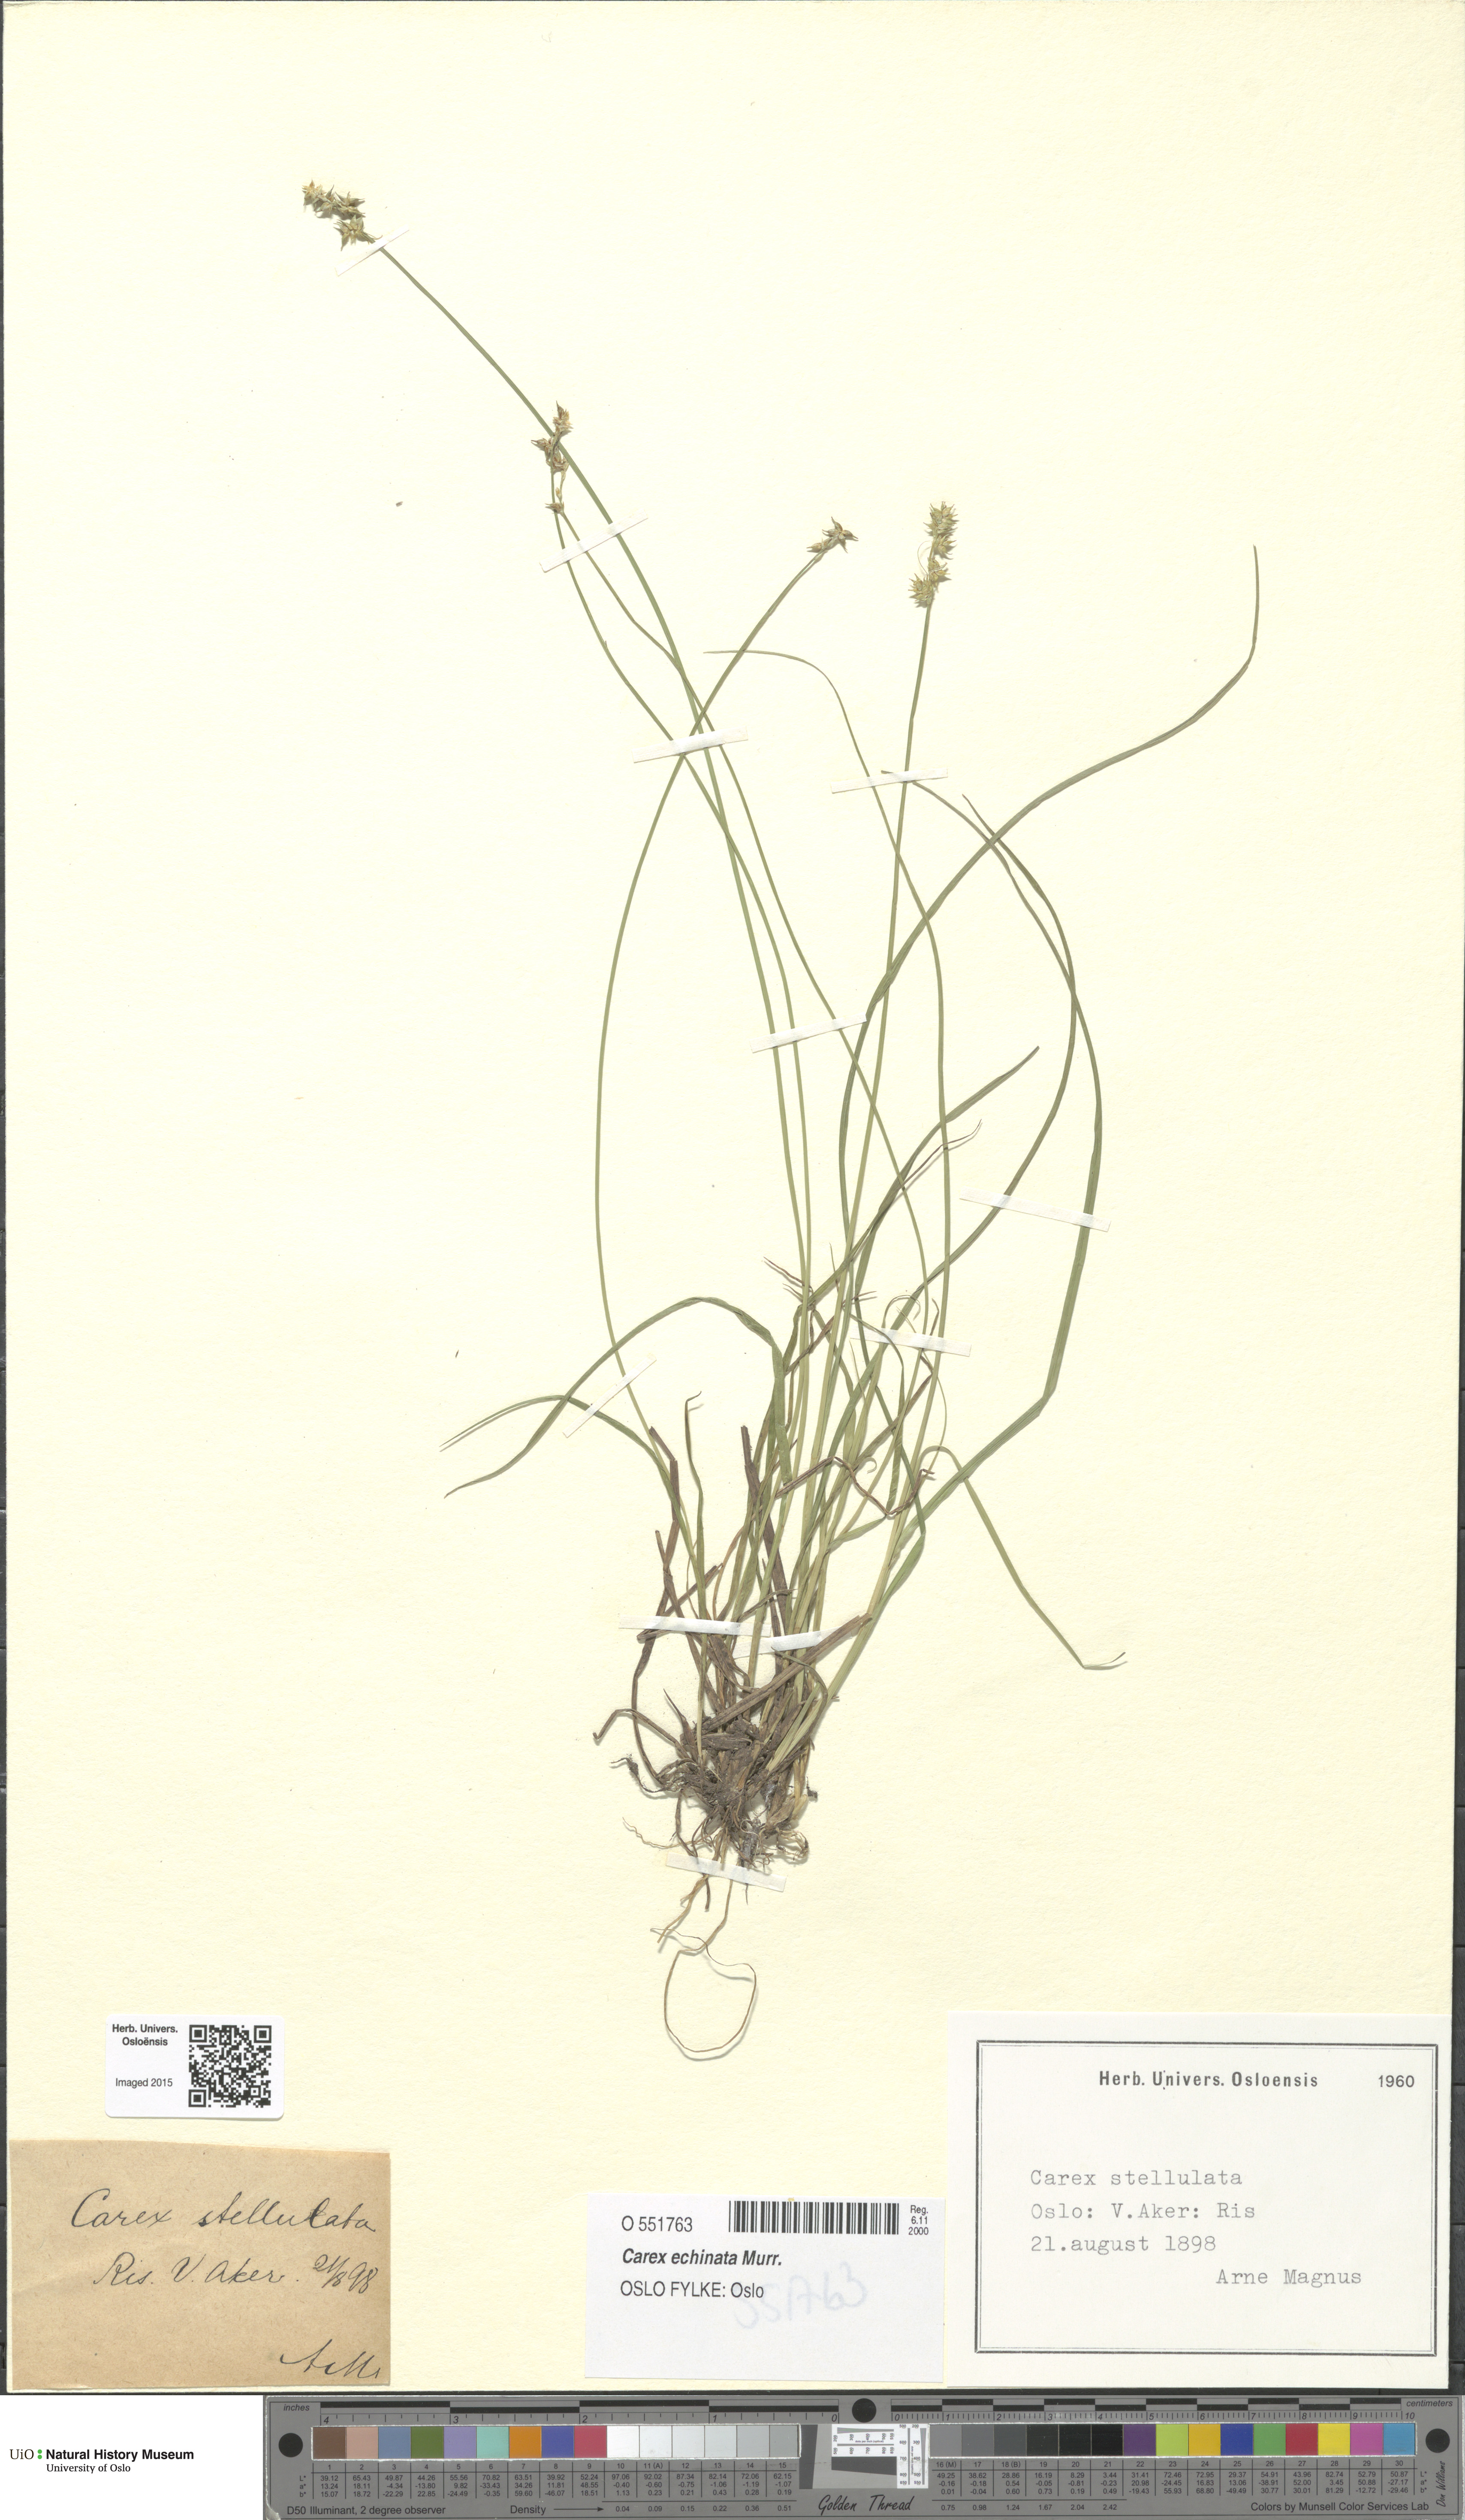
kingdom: Plantae
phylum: Tracheophyta
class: Liliopsida
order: Poales
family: Cyperaceae
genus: Carex
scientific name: Carex echinata
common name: Star sedge
